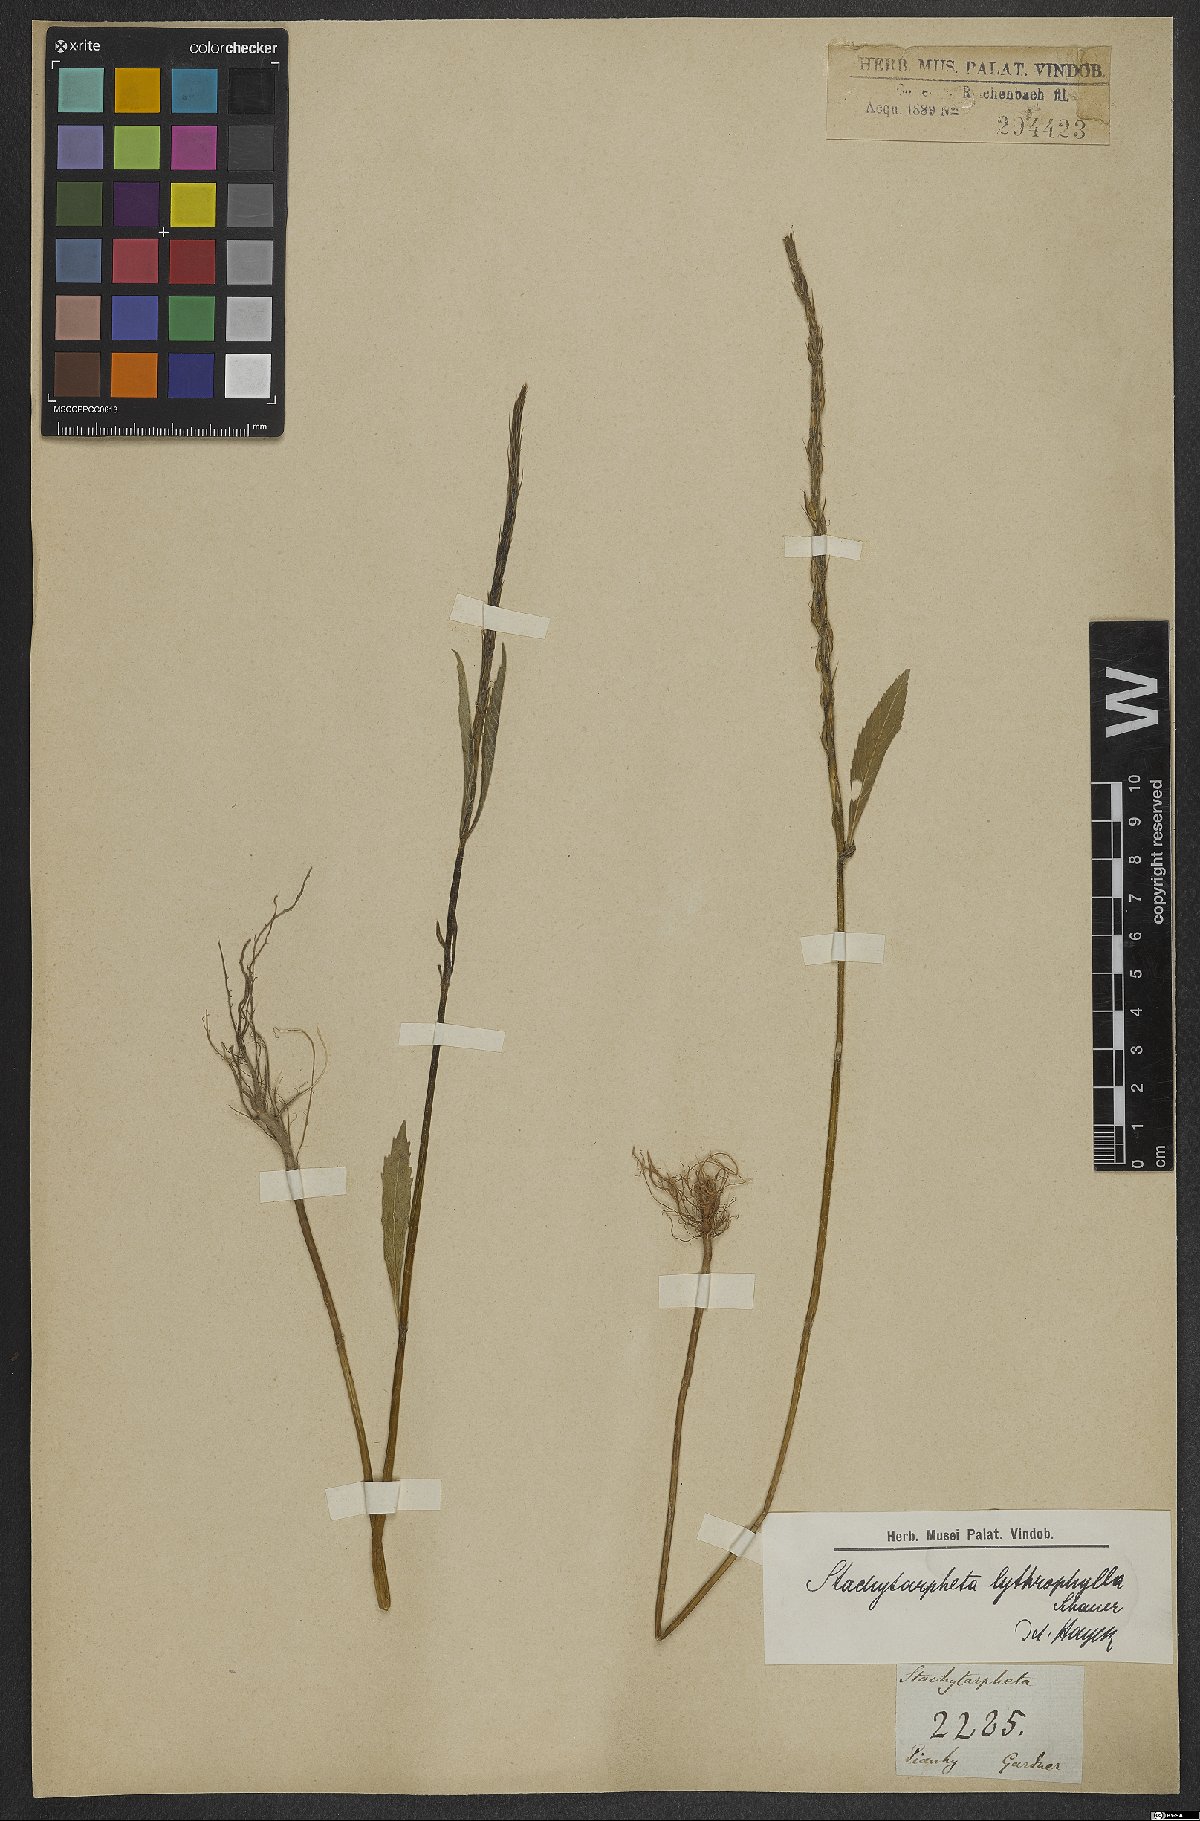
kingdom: Plantae
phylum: Tracheophyta
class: Magnoliopsida
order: Lamiales
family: Verbenaceae
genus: Stachytarpheta
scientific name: Stachytarpheta lythrophylla
